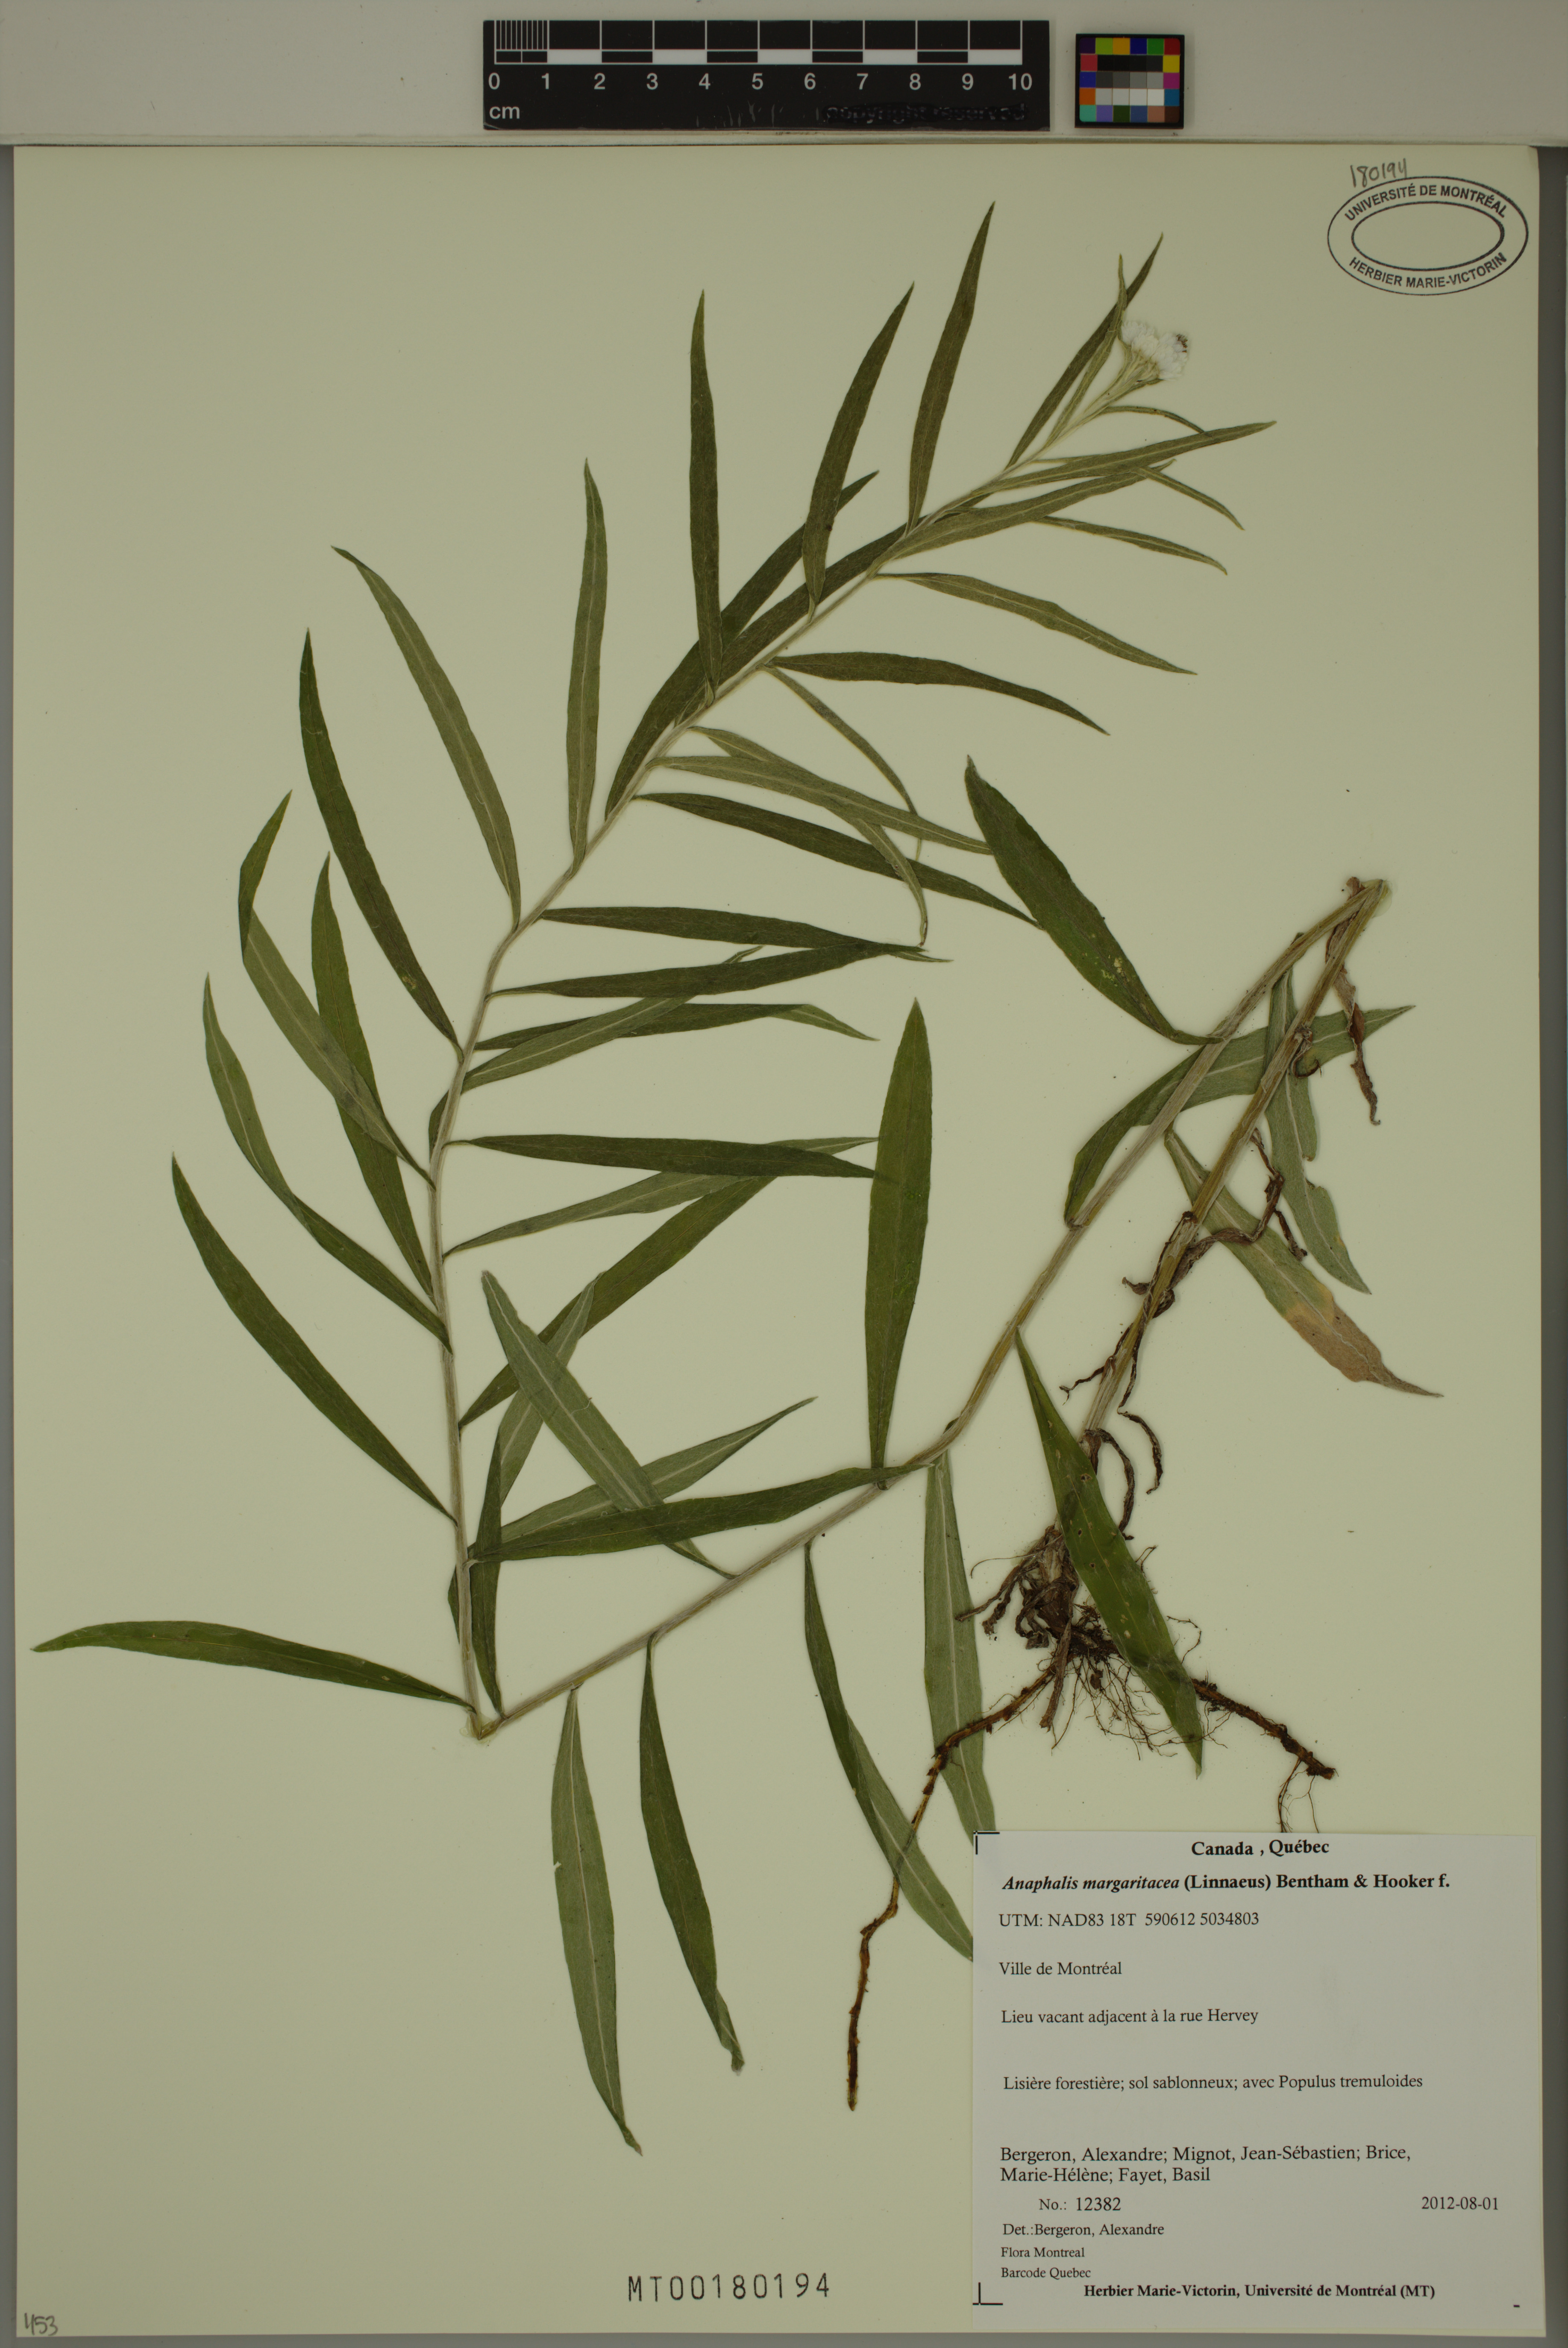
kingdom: Plantae
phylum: Tracheophyta
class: Magnoliopsida
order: Asterales
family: Asteraceae
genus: Anaphalis
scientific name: Anaphalis margaritacea
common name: Pearly everlasting
